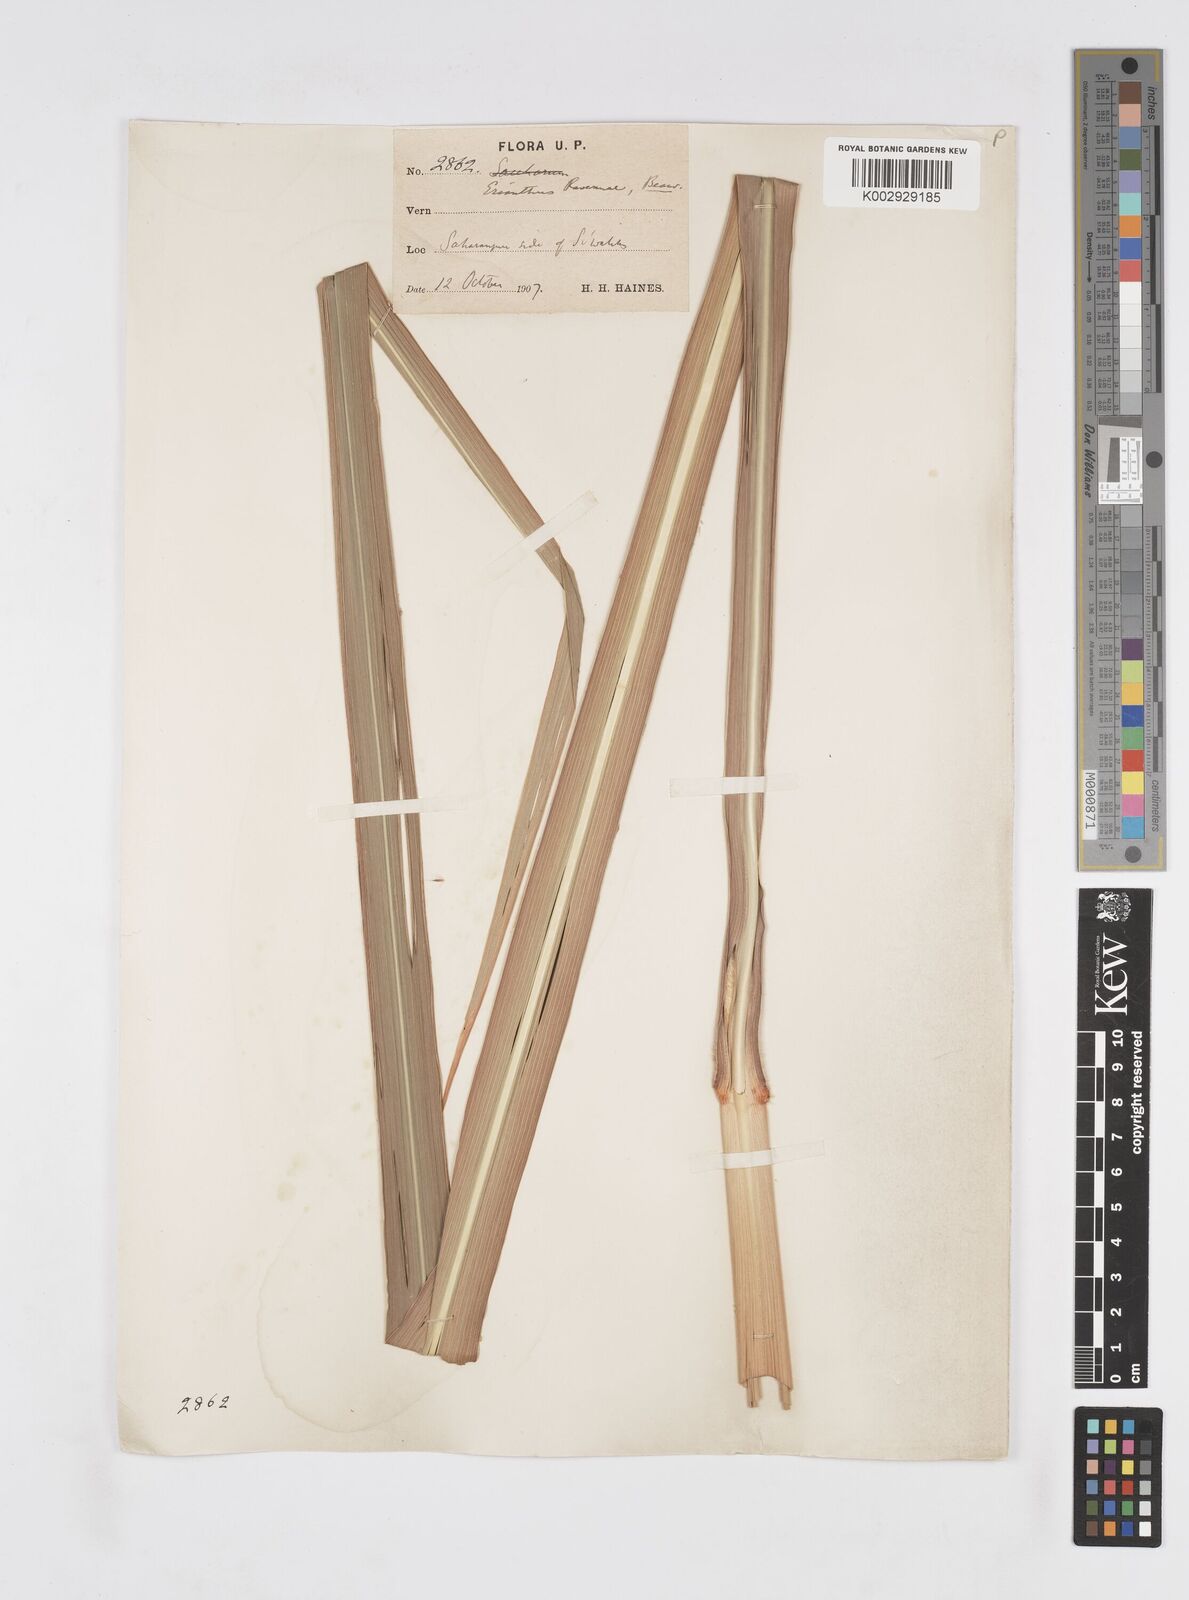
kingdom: Plantae
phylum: Tracheophyta
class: Liliopsida
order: Poales
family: Poaceae
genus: Tripidium
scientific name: Tripidium ravennae
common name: Ravenna grass
